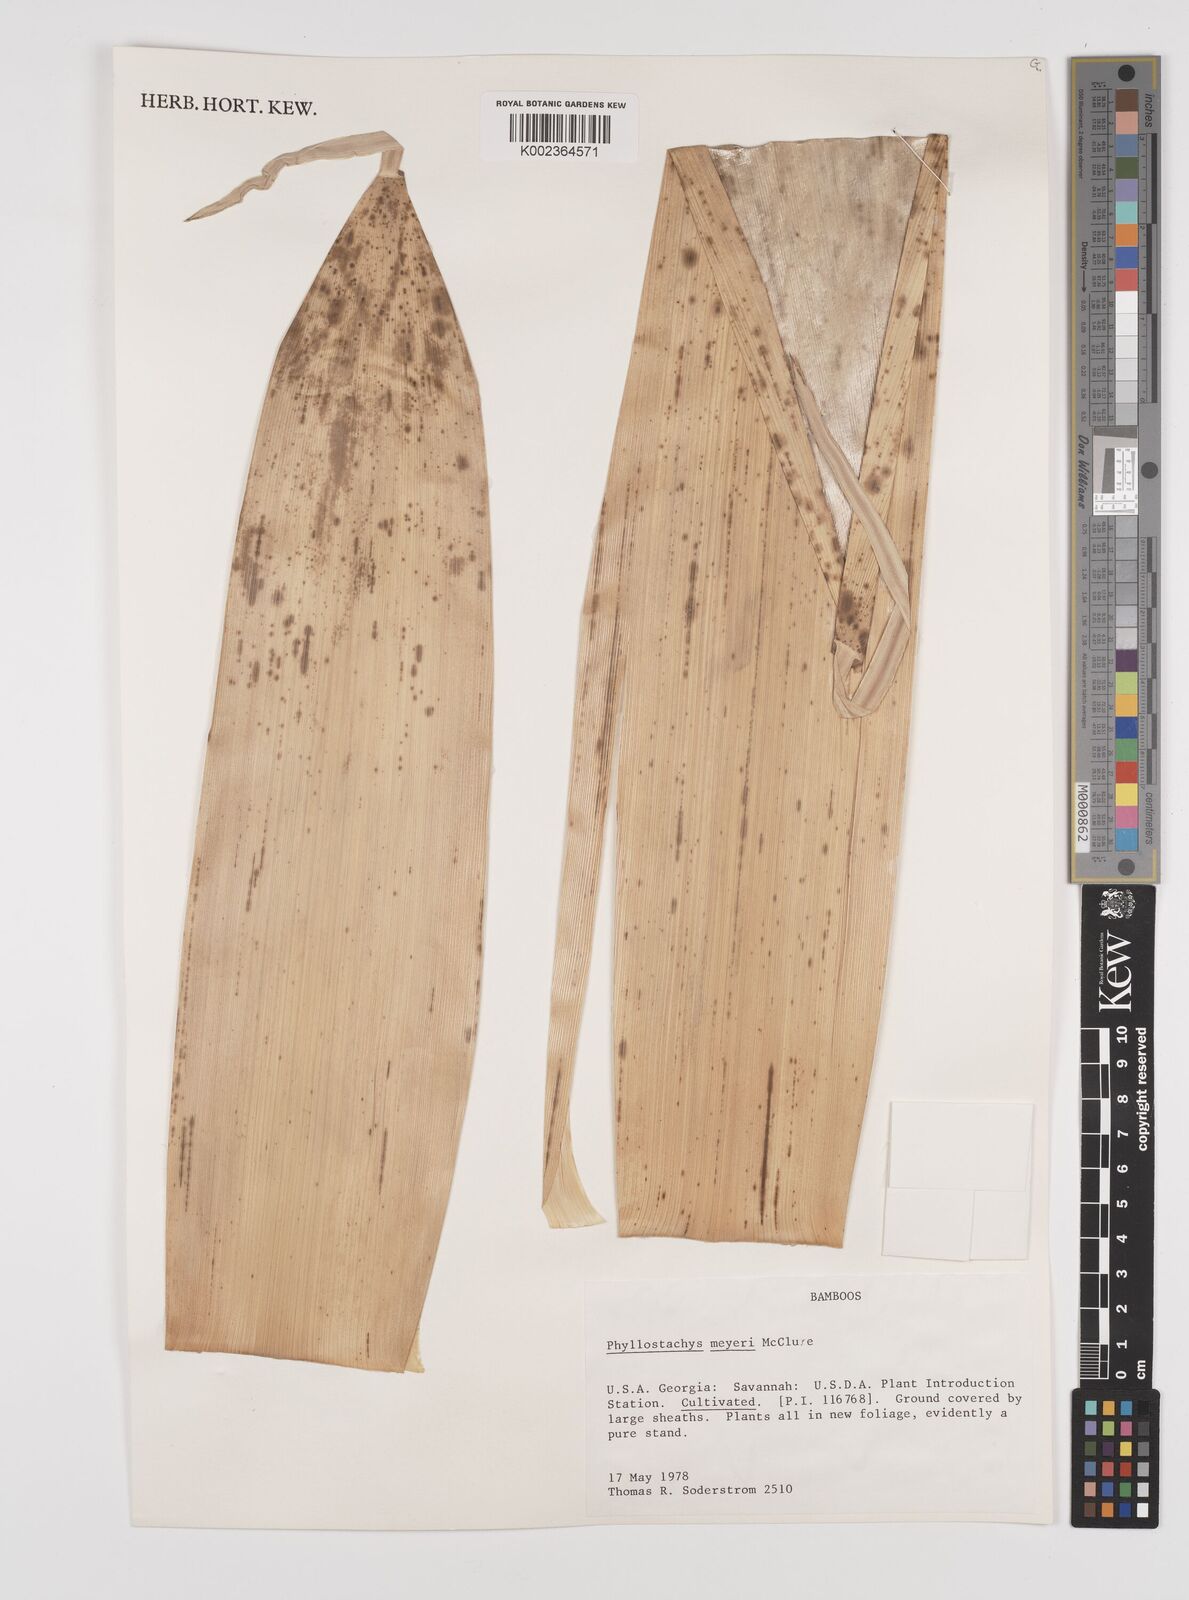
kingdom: Plantae
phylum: Tracheophyta
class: Liliopsida
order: Poales
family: Poaceae
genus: Phyllostachys
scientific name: Phyllostachys meyeri
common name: Meyer's bamboo
